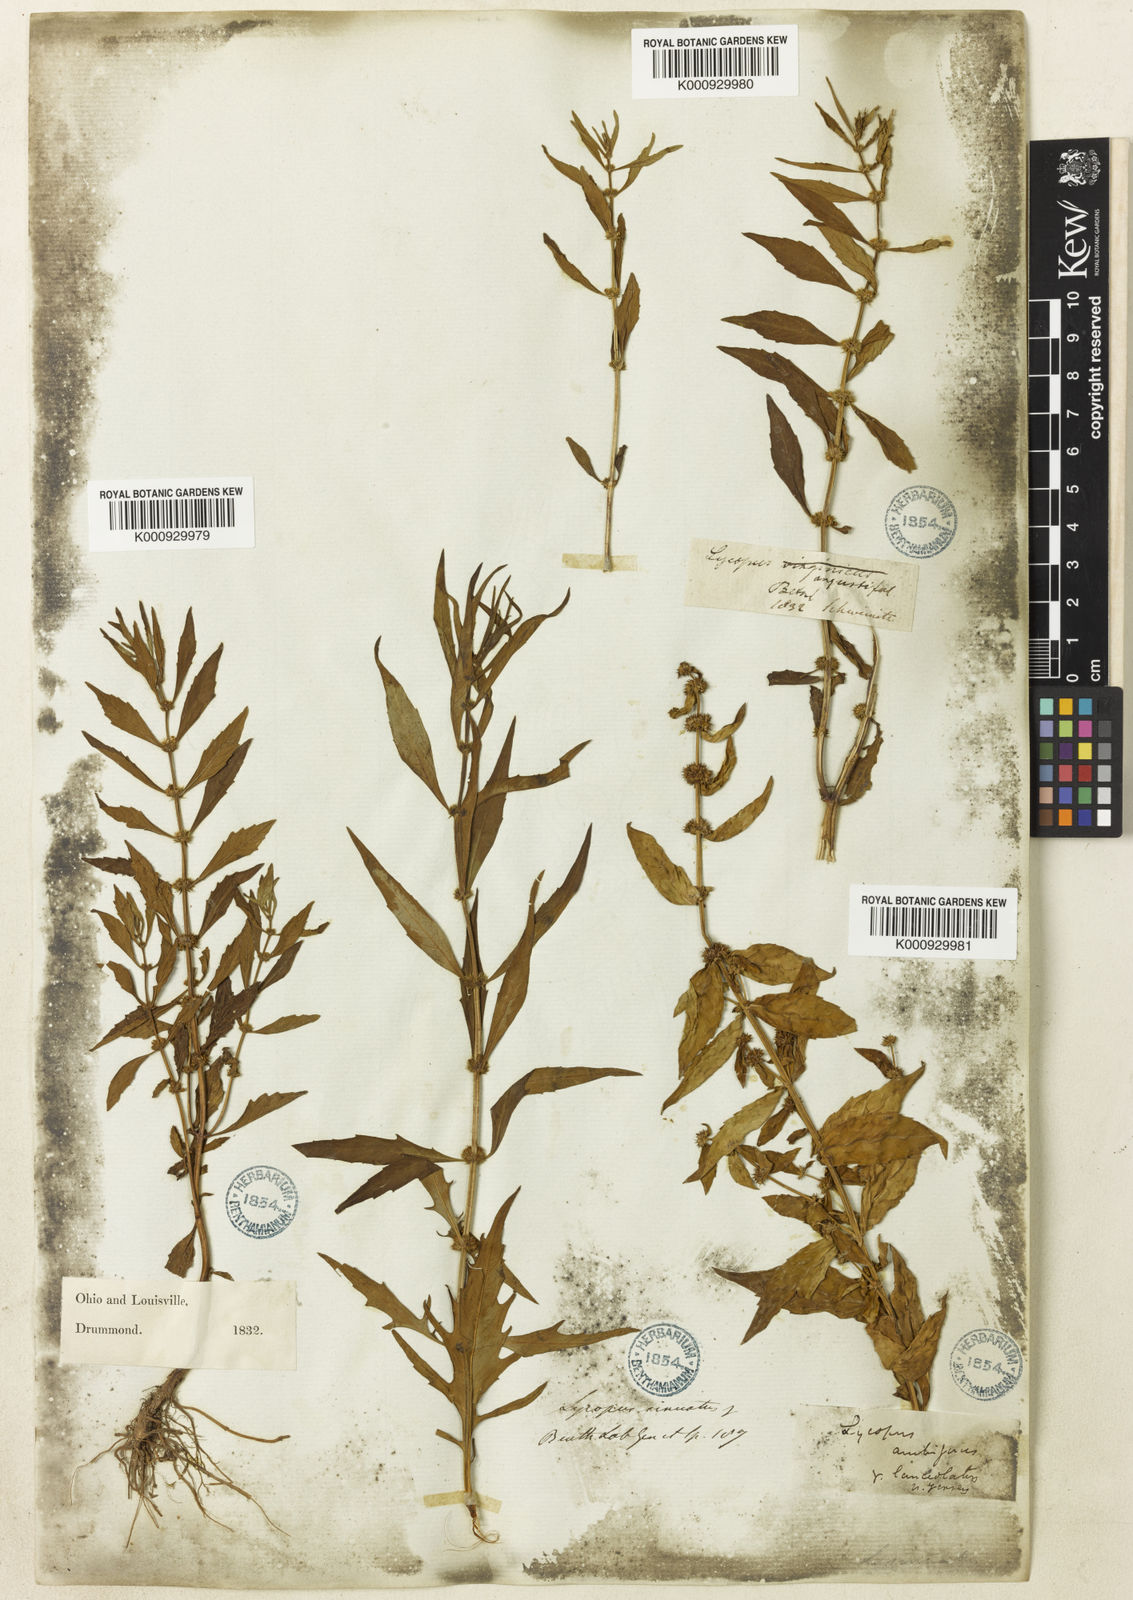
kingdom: Plantae
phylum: Tracheophyta
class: Magnoliopsida
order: Lamiales
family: Lamiaceae
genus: Lycopus
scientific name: Lycopus
